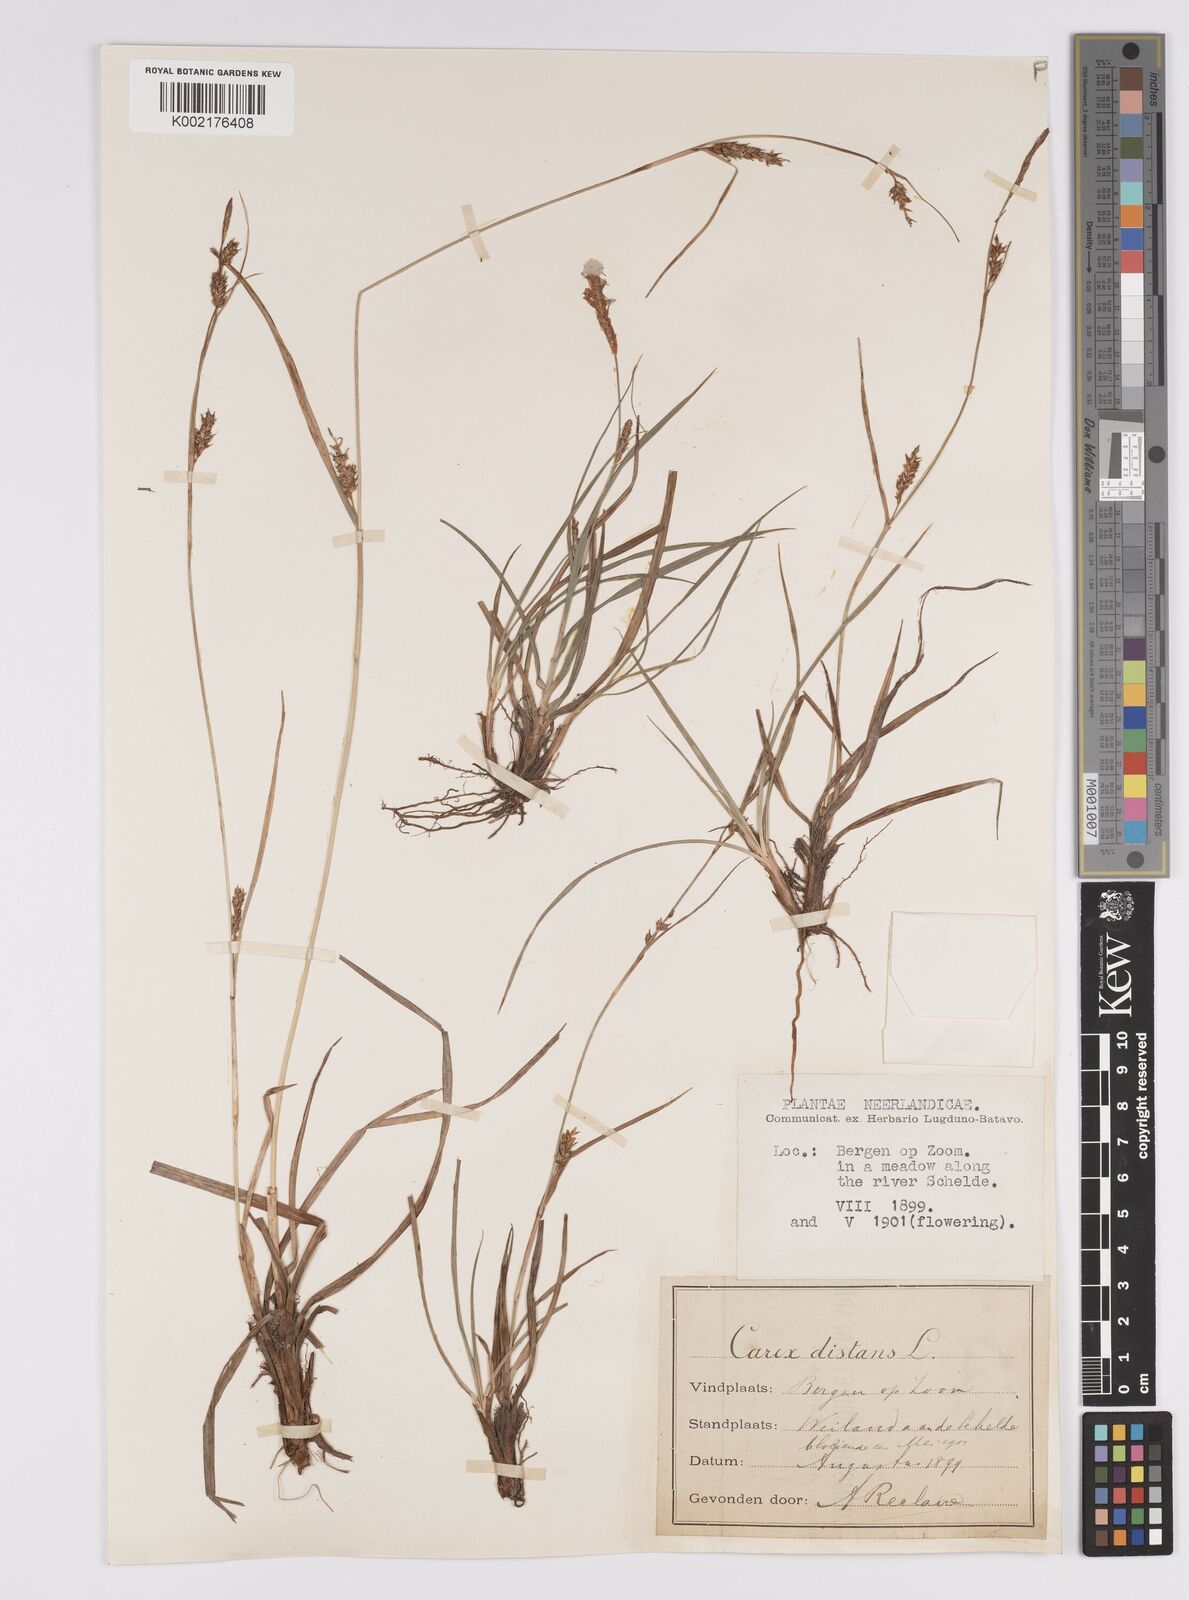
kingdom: Plantae
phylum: Tracheophyta
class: Liliopsida
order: Poales
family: Cyperaceae
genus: Carex
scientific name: Carex distans
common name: Distant sedge
